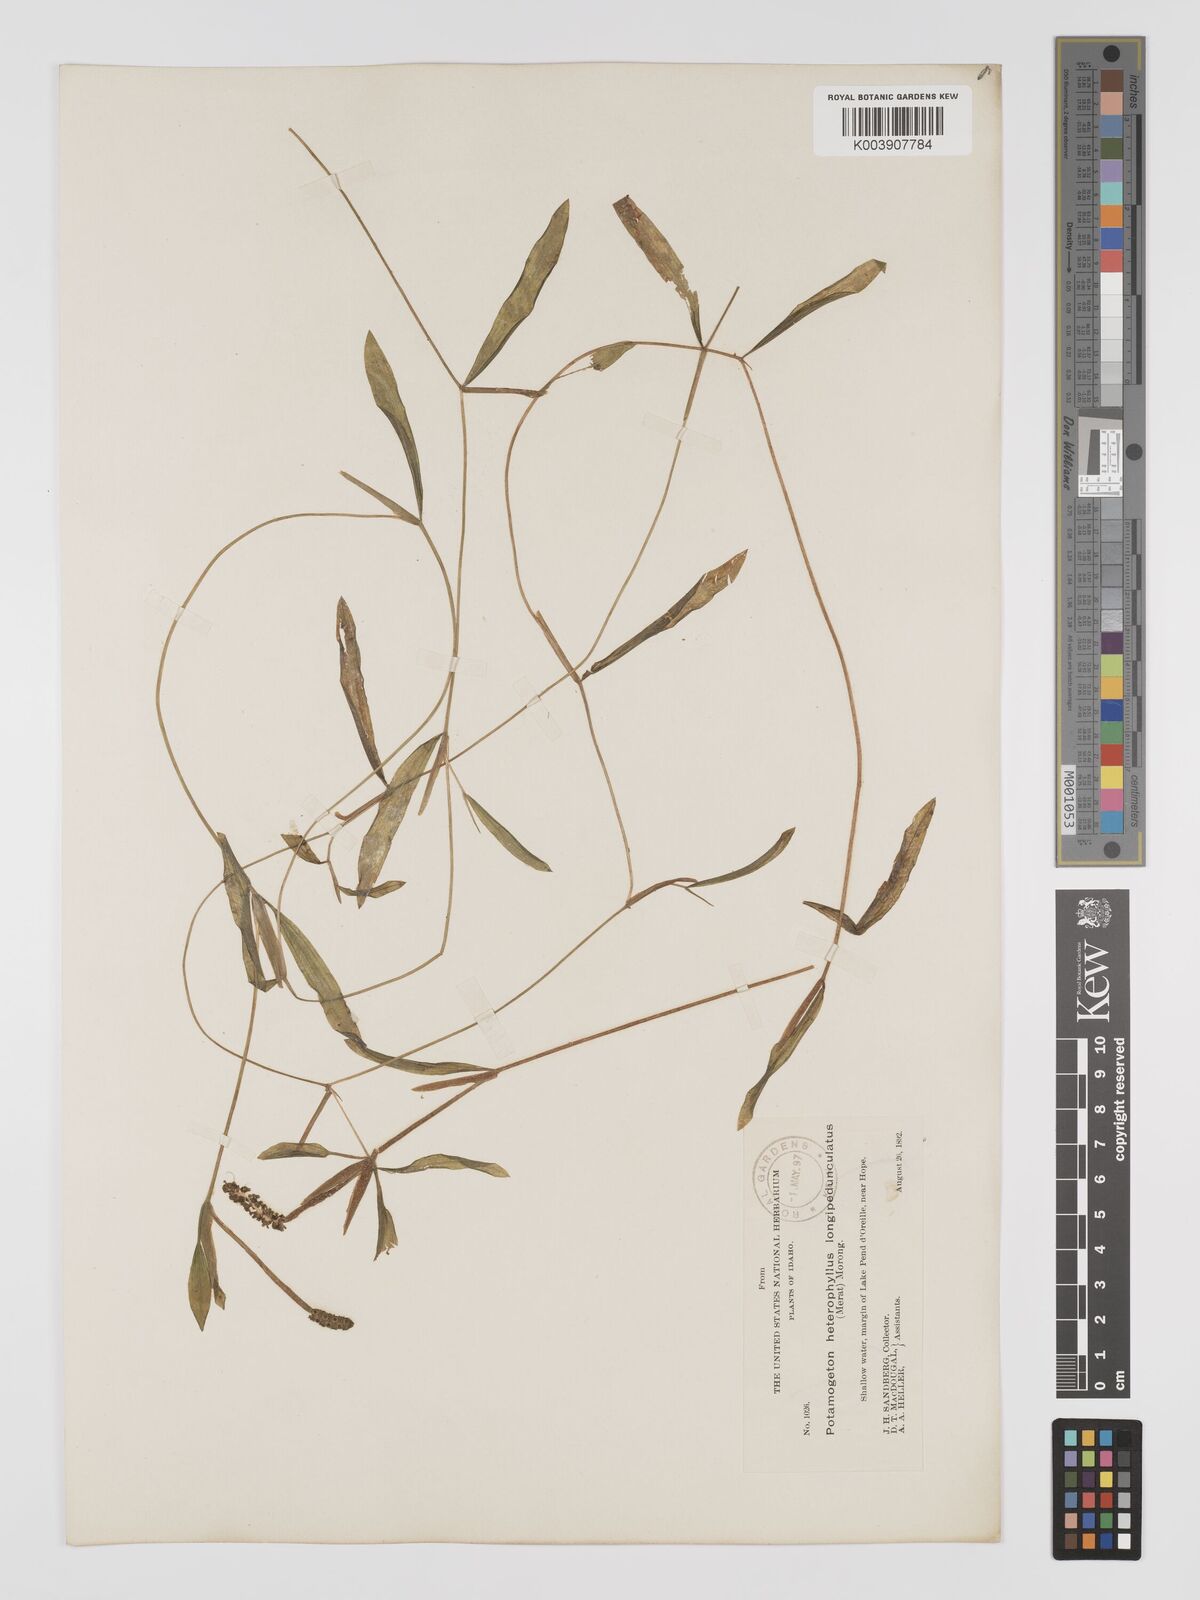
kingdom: Plantae
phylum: Tracheophyta
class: Liliopsida
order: Alismatales
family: Potamogetonaceae
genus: Potamogeton
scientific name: Potamogeton gramineus
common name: Various-leaved pondweed
